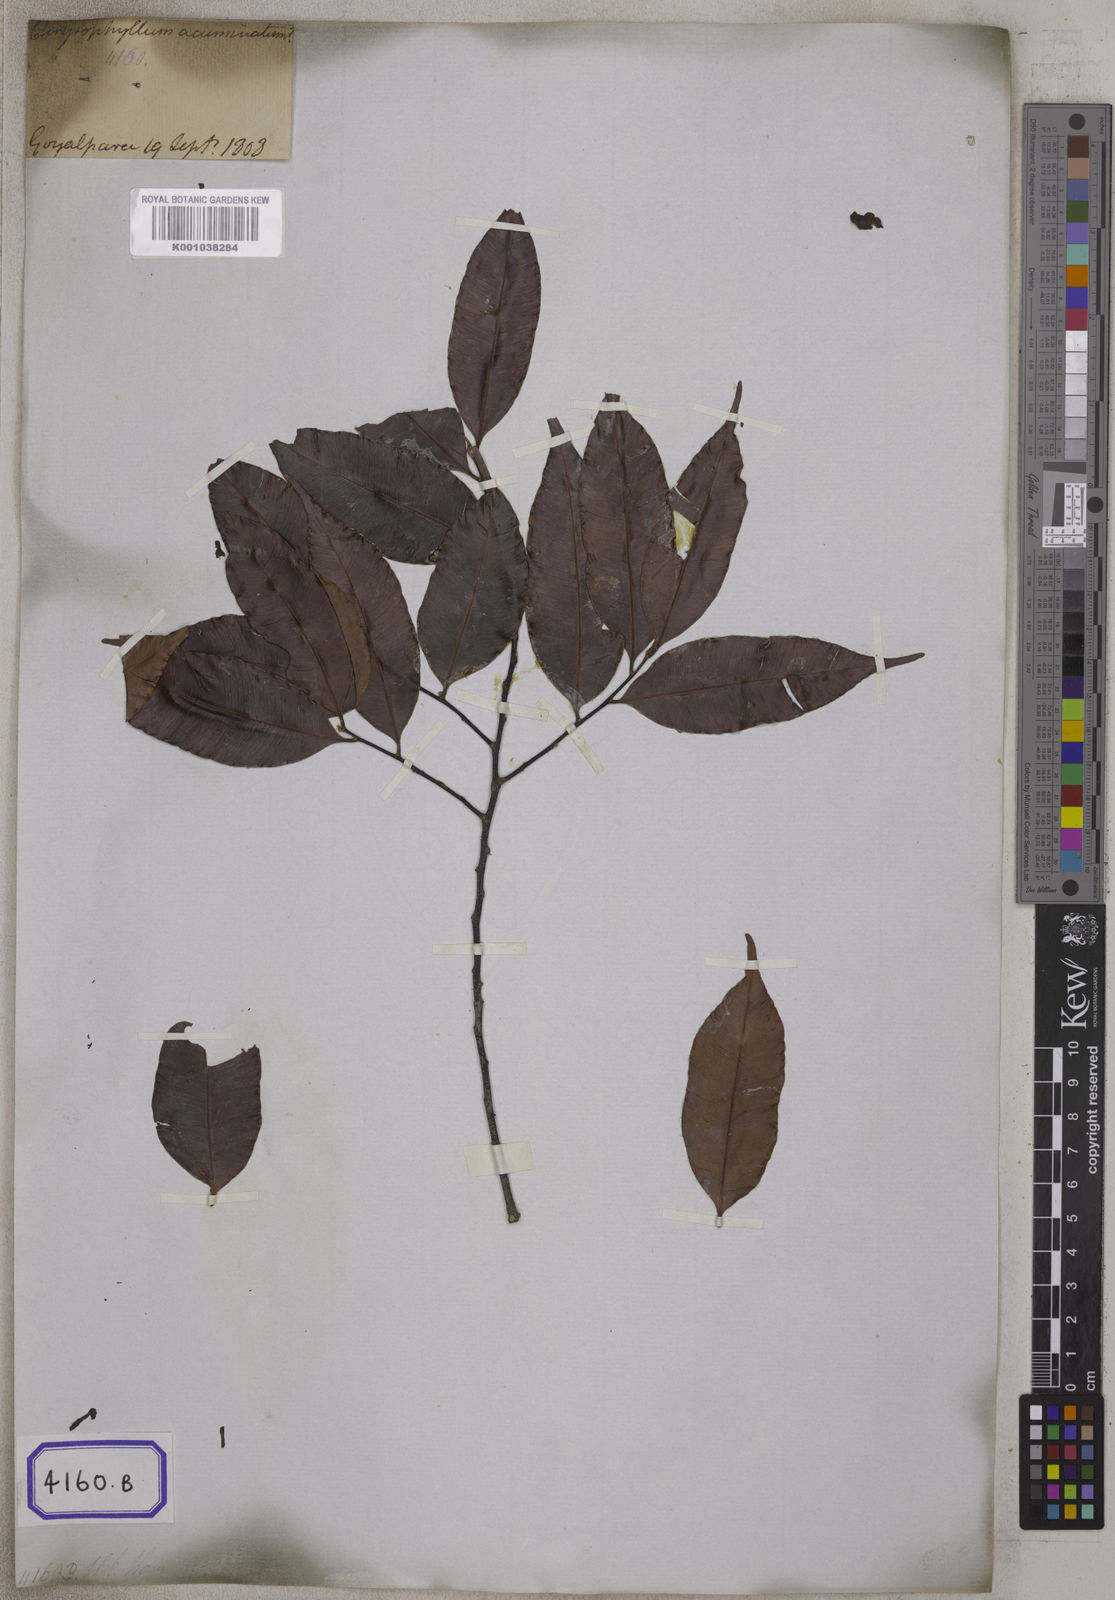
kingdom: Plantae
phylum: Tracheophyta
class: Magnoliopsida
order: Ericales
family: Sapotaceae
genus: Donella
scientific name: Donella lanceolata
